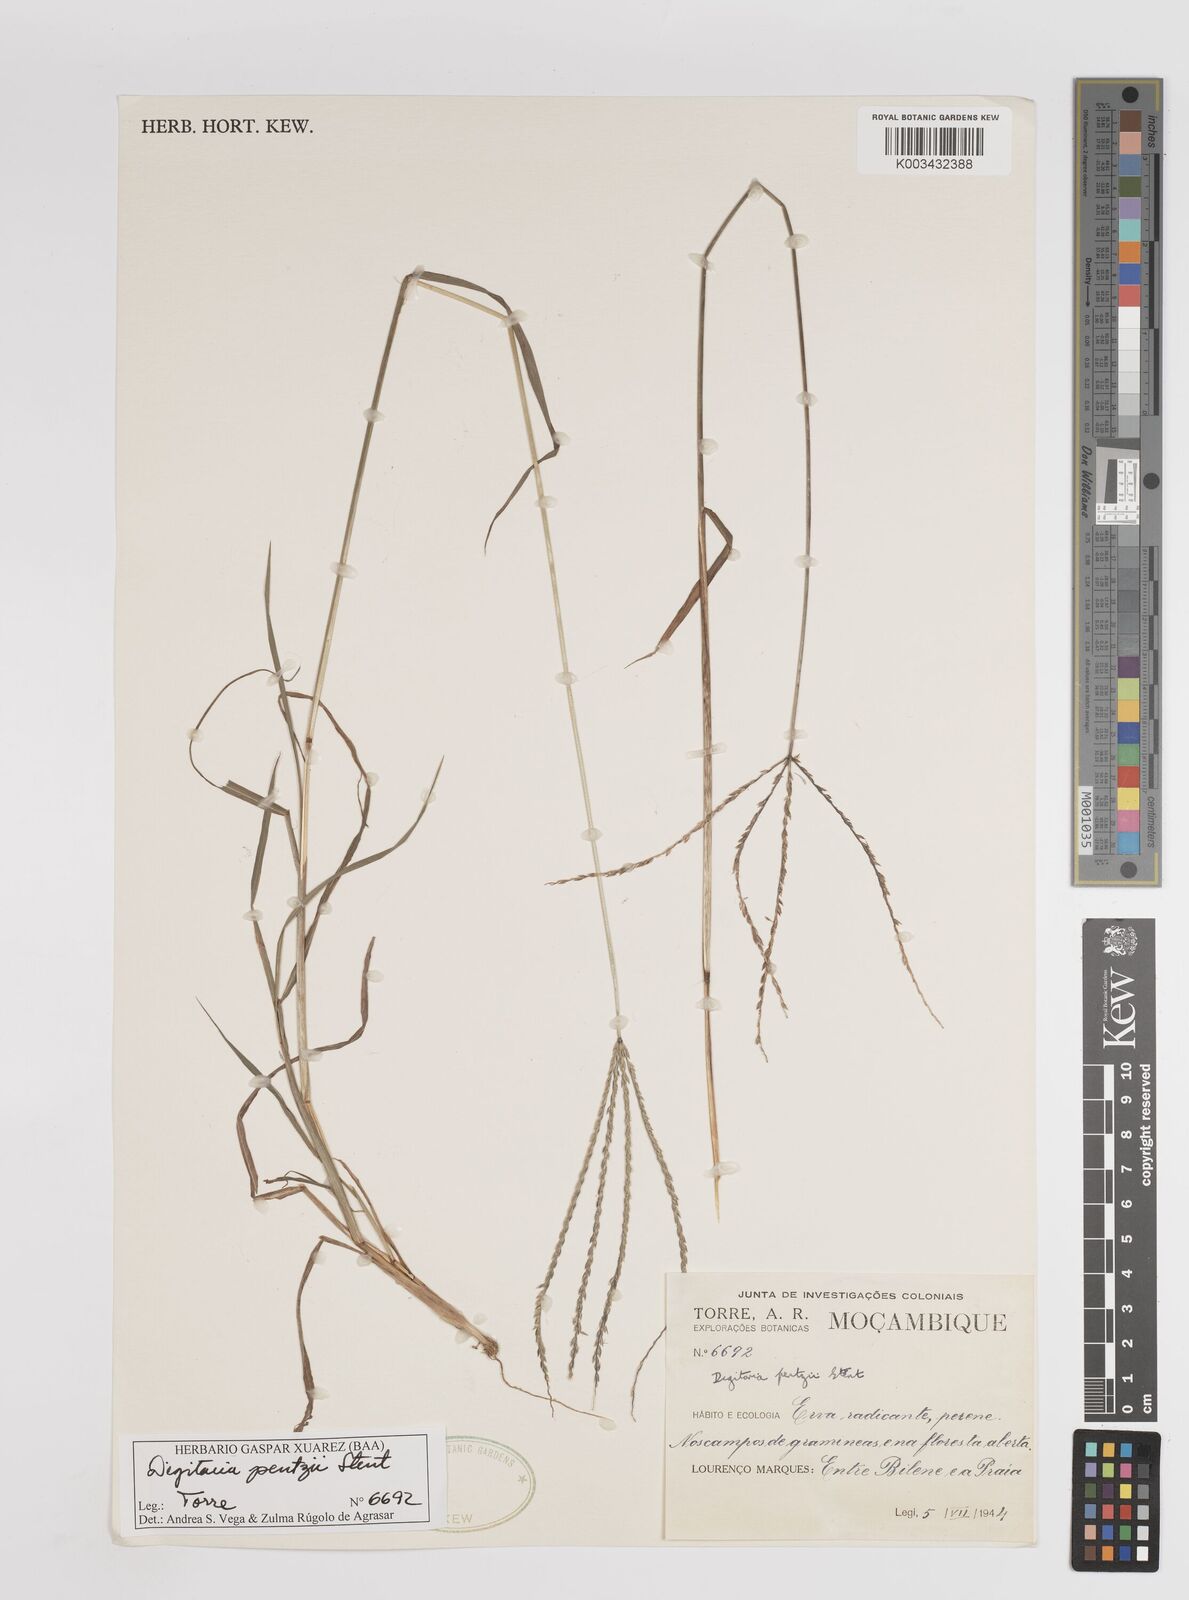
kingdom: Plantae
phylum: Tracheophyta
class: Liliopsida
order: Poales
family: Poaceae
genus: Digitaria
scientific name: Digitaria eriantha
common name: Digitgrass
